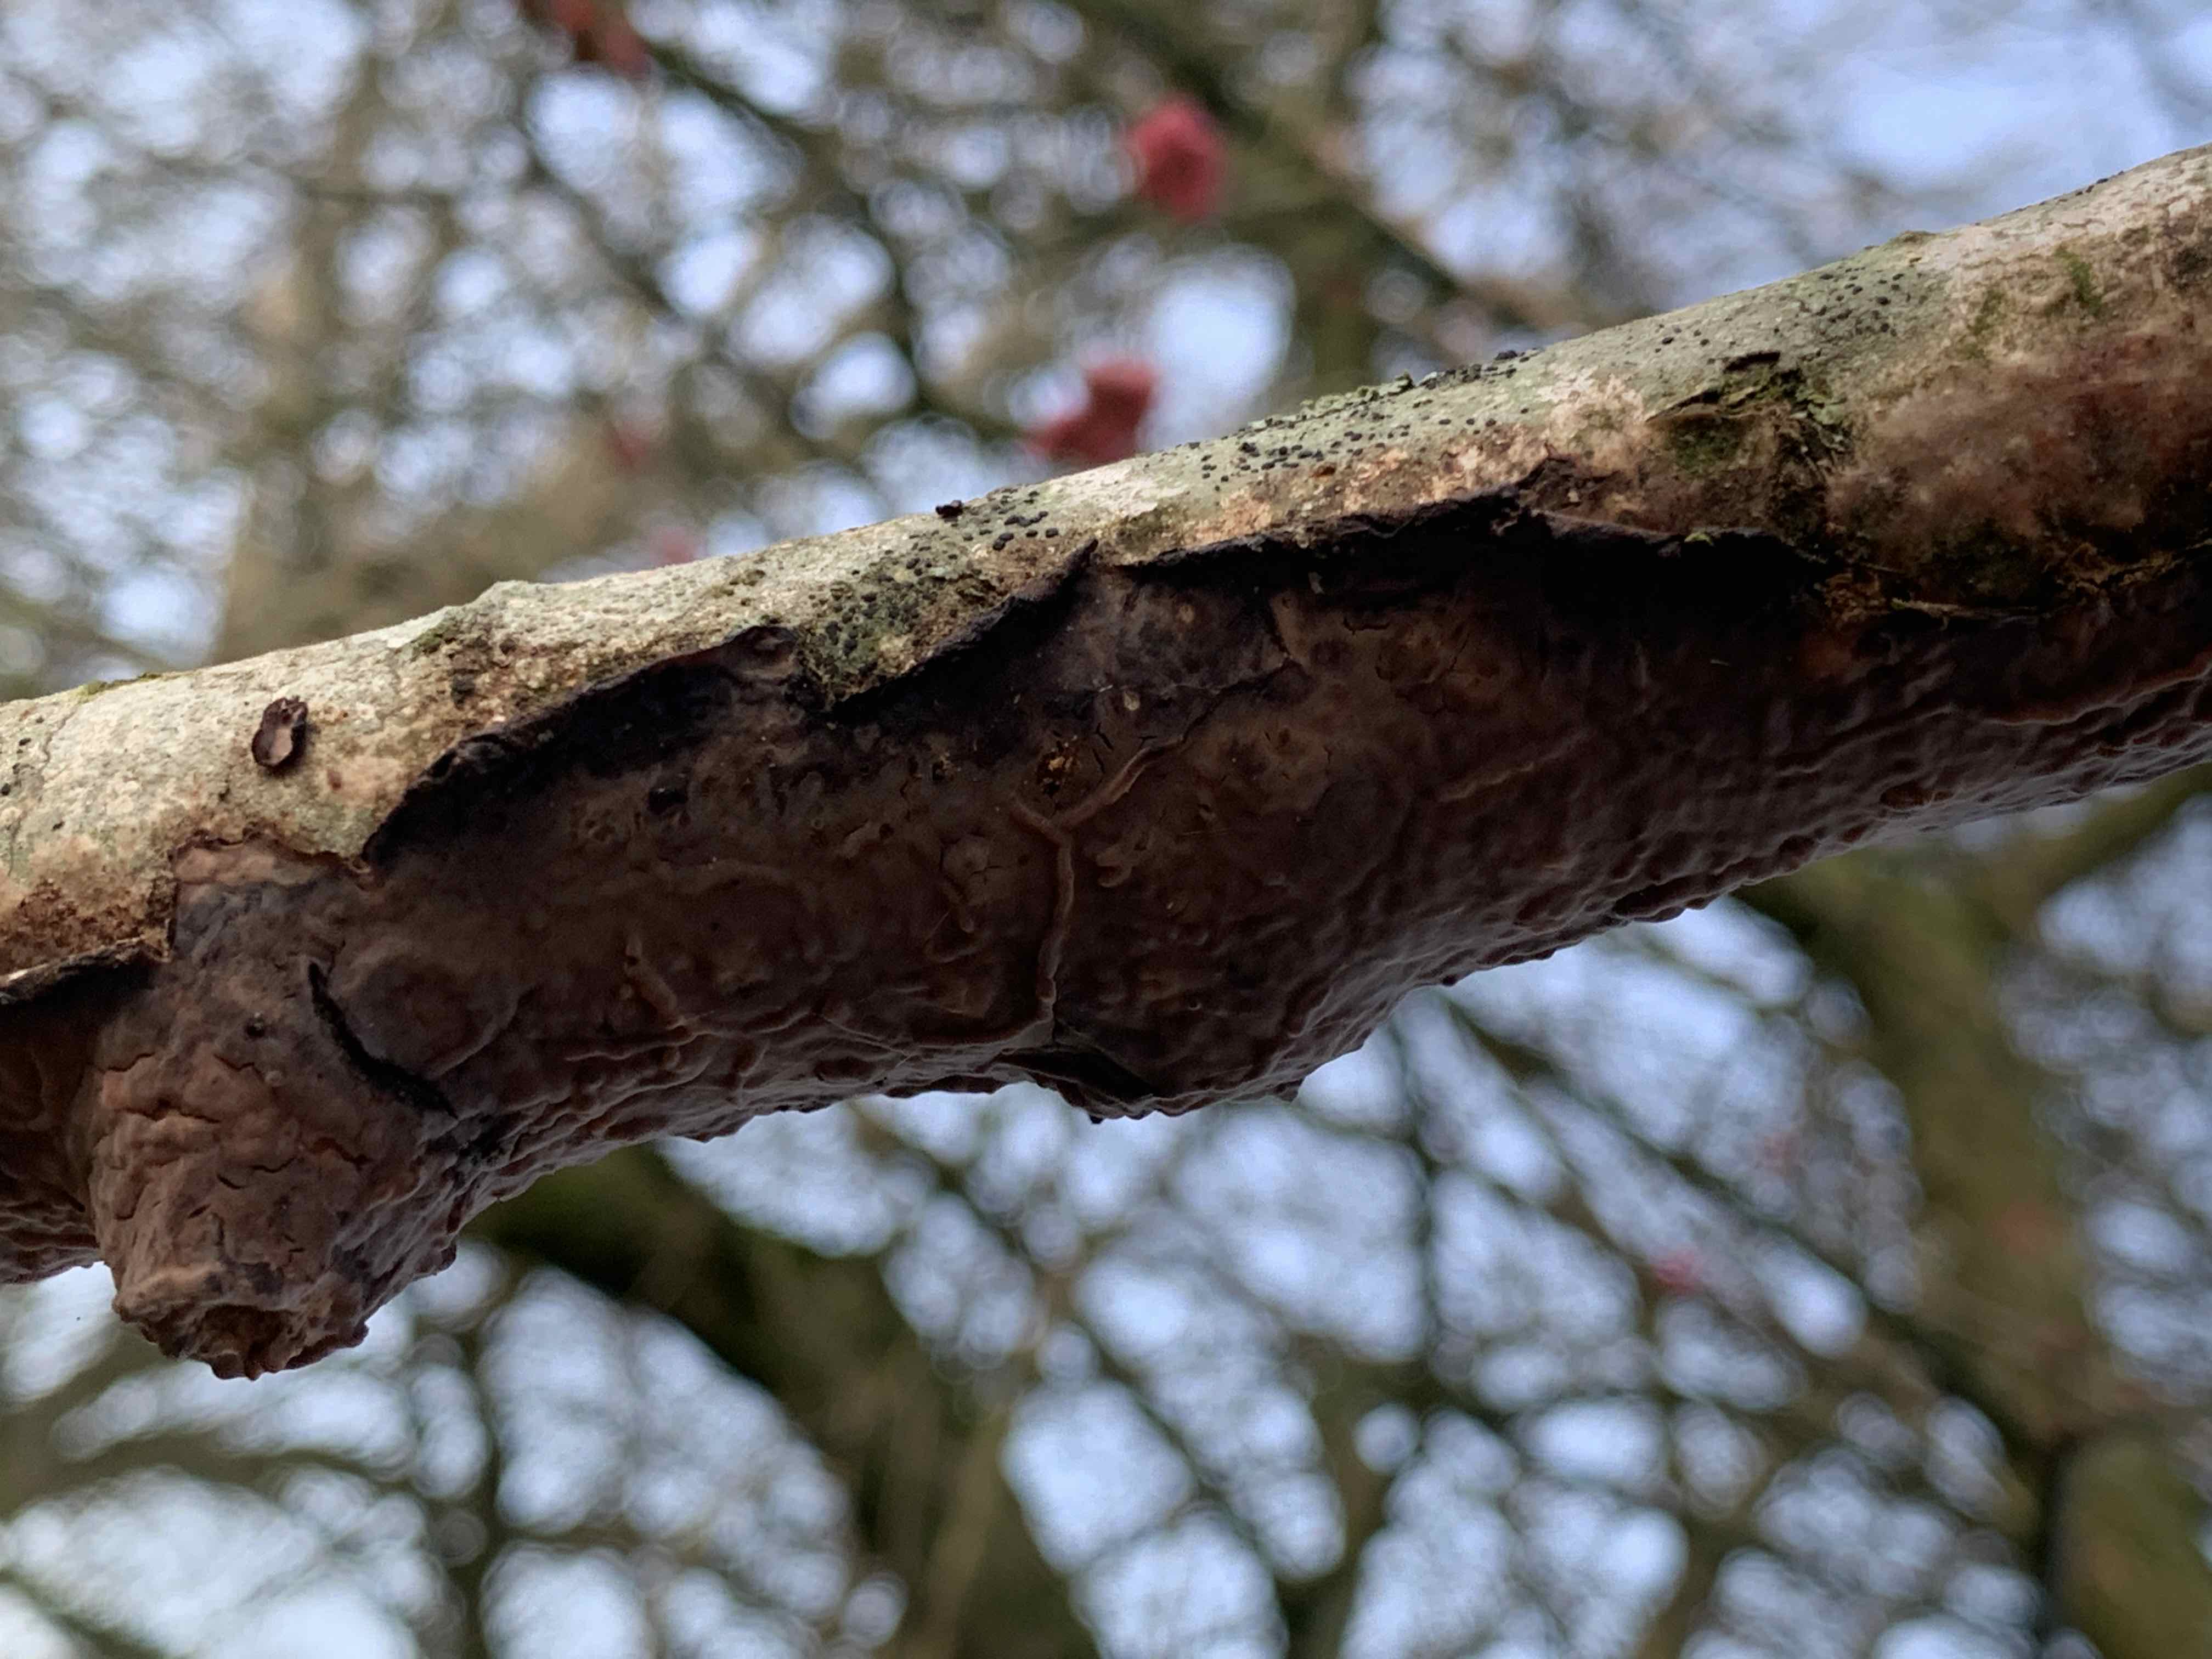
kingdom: Fungi
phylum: Basidiomycota
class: Agaricomycetes
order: Russulales
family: Peniophoraceae
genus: Peniophora
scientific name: Peniophora quercina
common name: ege-voksskind
